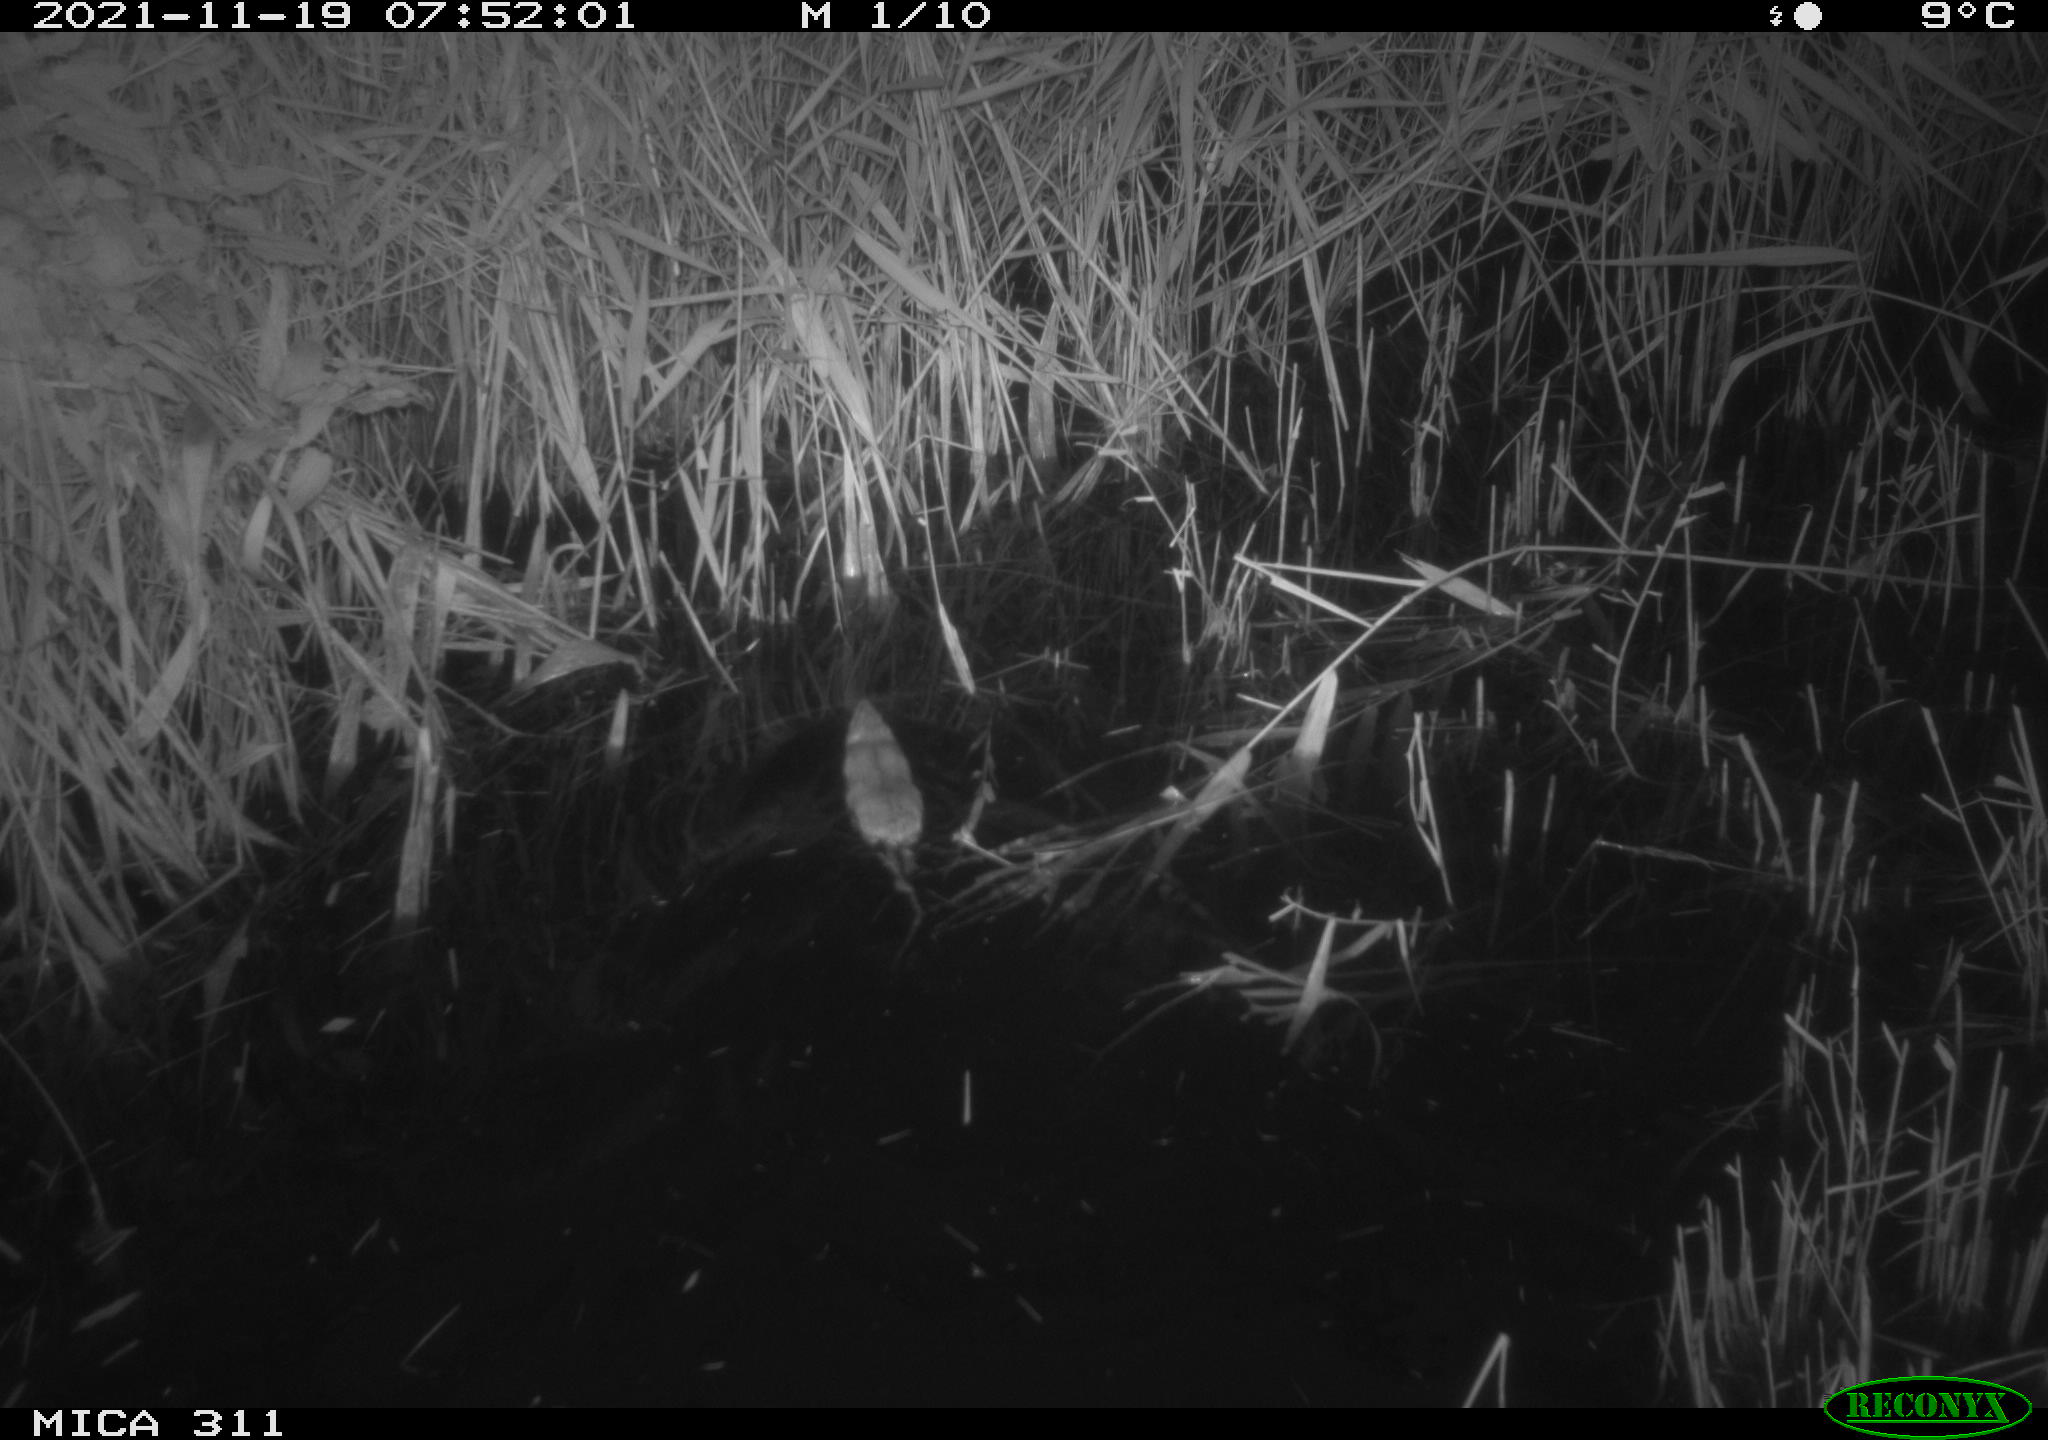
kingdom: Animalia
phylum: Chordata
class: Mammalia
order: Rodentia
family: Muridae
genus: Rattus
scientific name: Rattus norvegicus
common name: Brown rat
